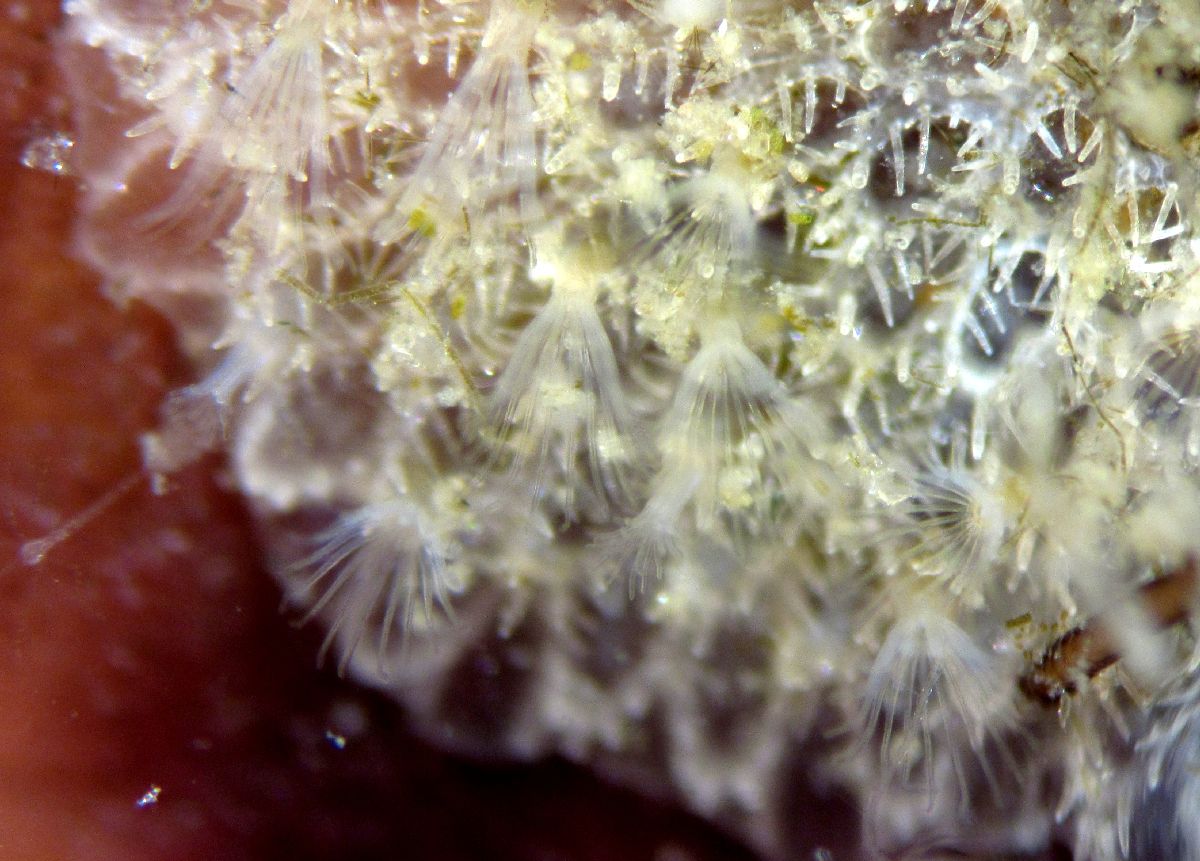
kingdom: Animalia
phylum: Bryozoa
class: Gymnolaemata
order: Cheilostomatida
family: Calloporidae
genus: Cauloramphus
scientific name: Cauloramphus cymbaeformis
